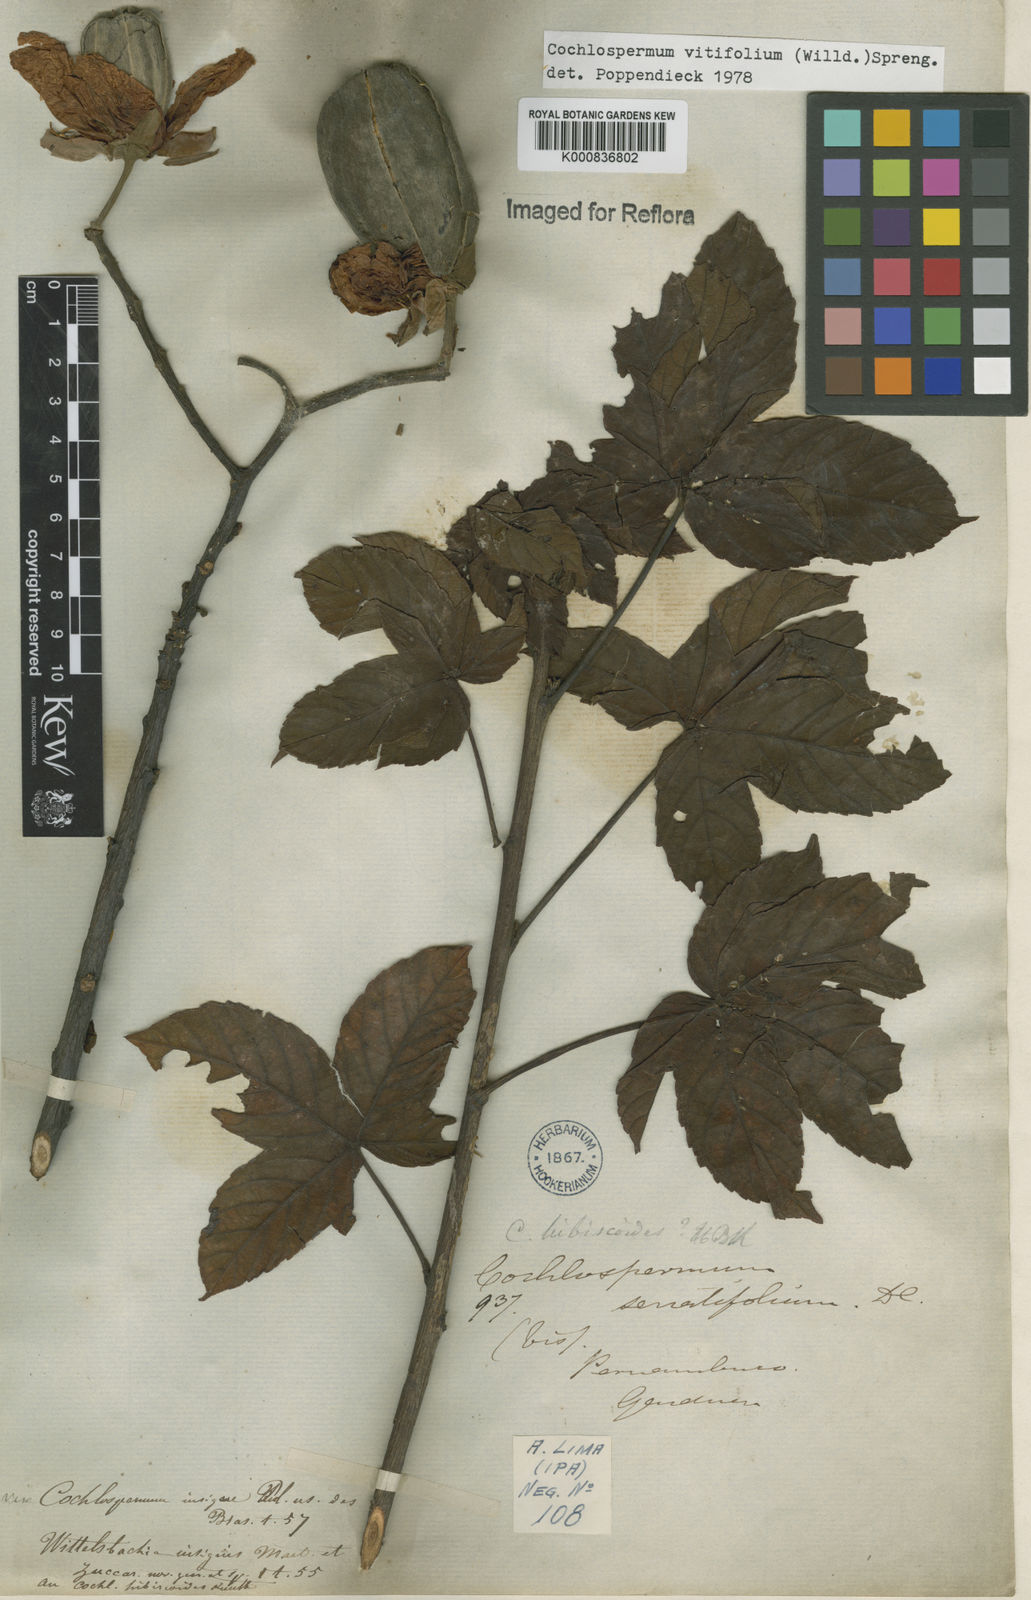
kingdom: Plantae
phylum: Tracheophyta
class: Magnoliopsida
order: Malvales
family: Cochlospermaceae
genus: Cochlospermum
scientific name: Cochlospermum regium
